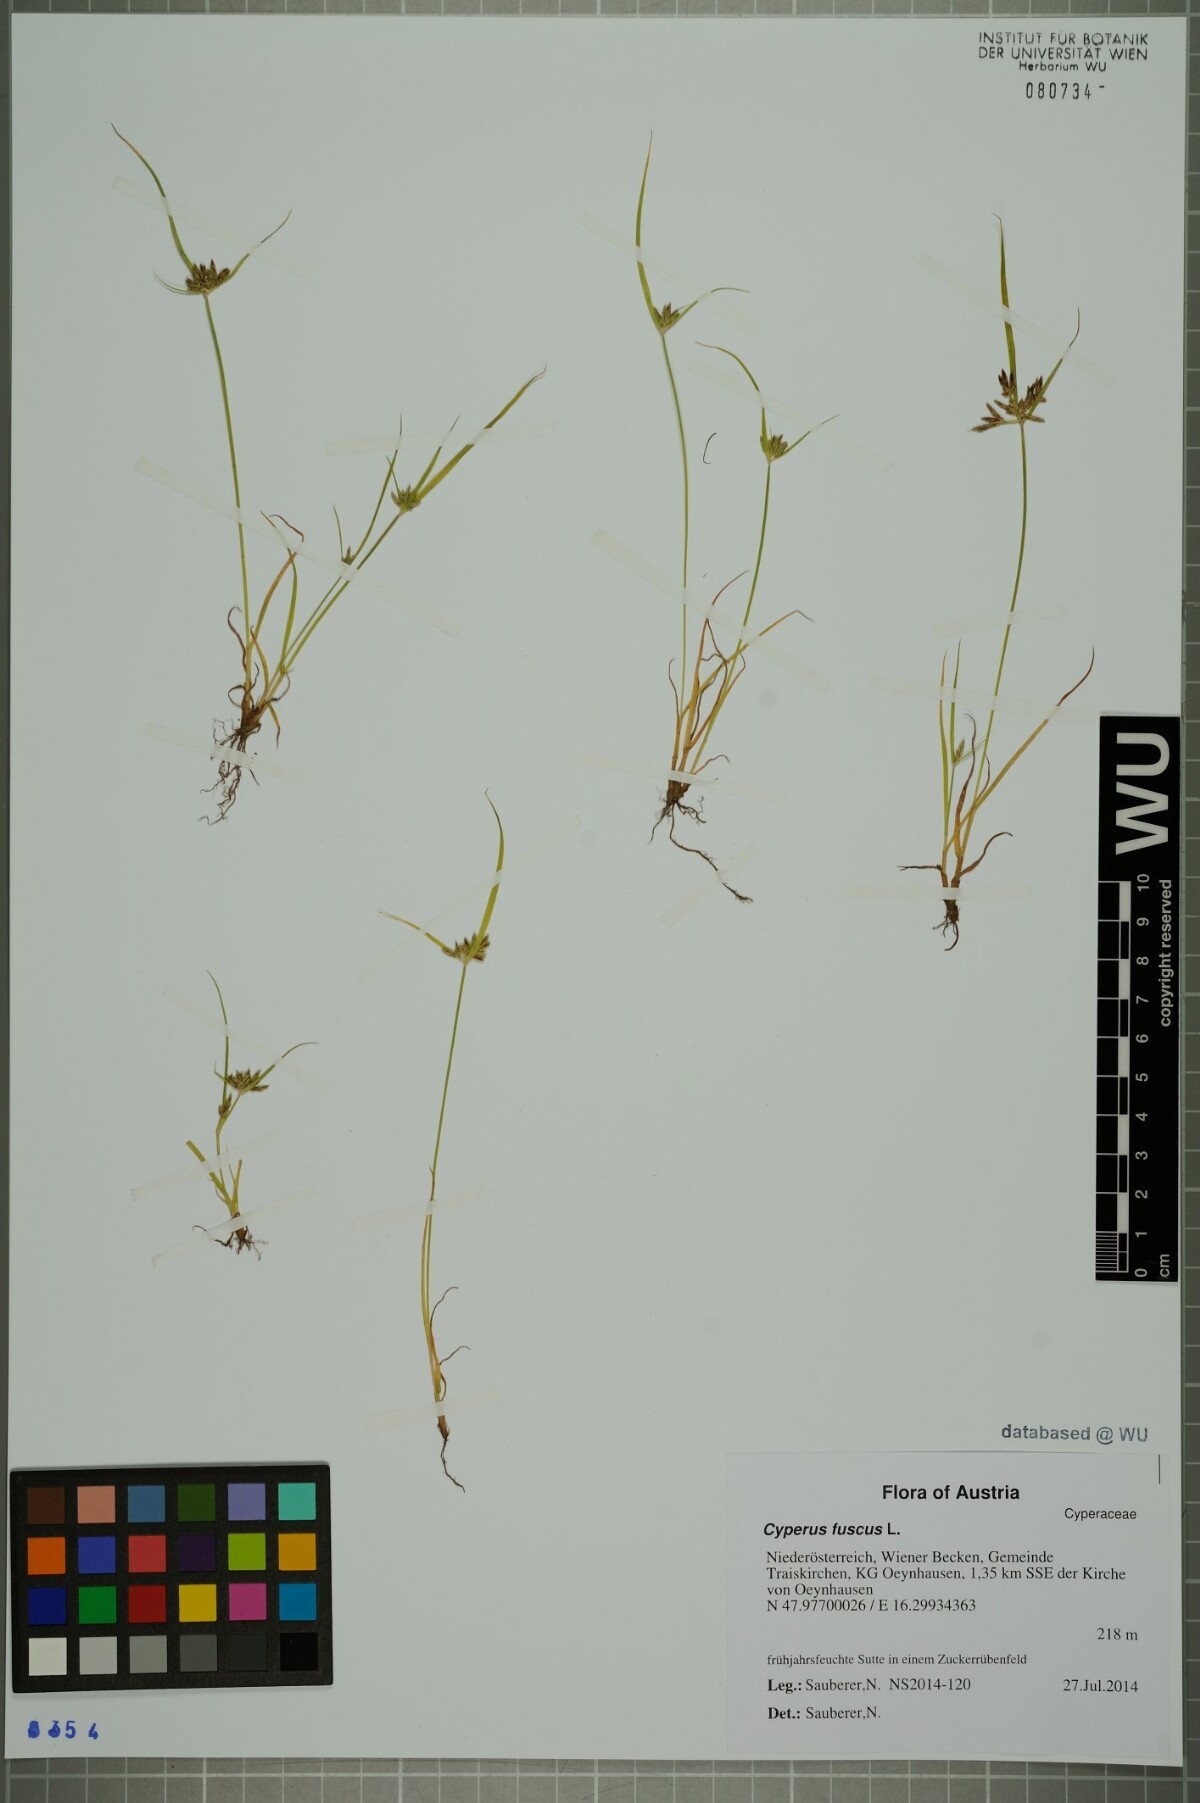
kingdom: Plantae
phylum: Tracheophyta
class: Liliopsida
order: Poales
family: Cyperaceae
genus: Cyperus
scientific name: Cyperus fuscus
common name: Brown galingale
